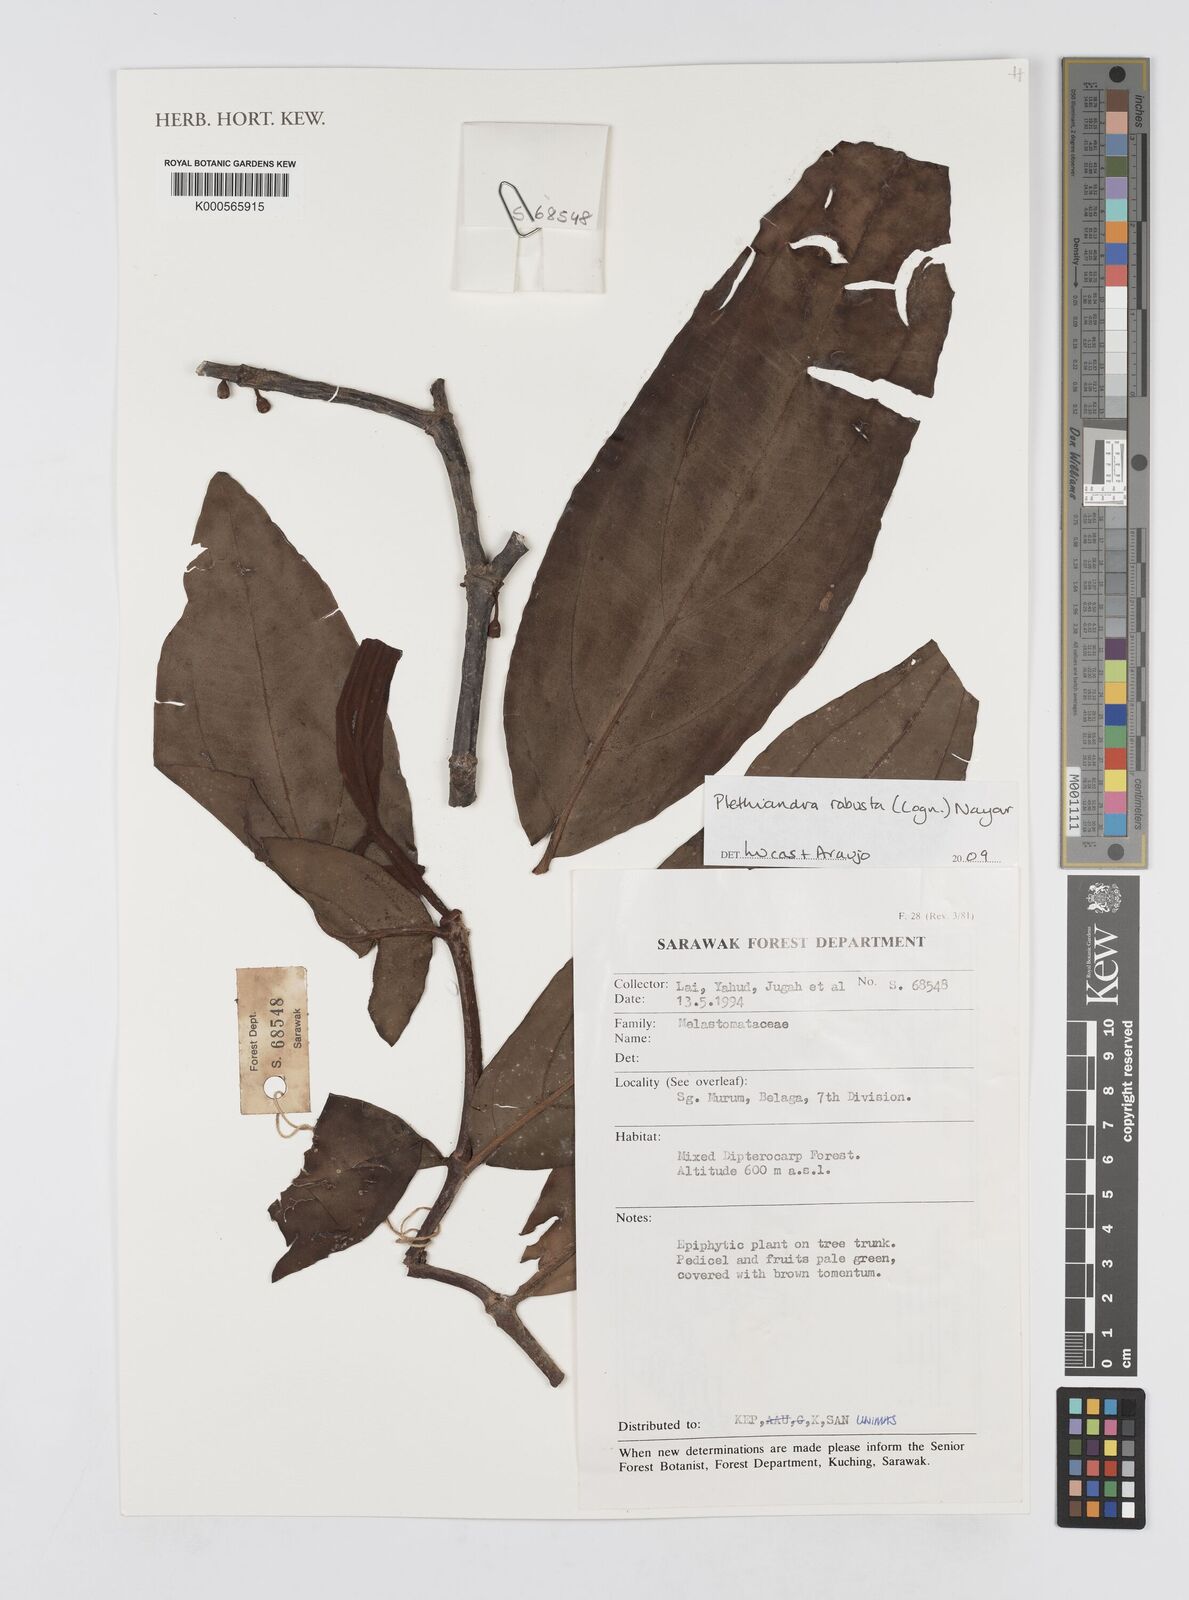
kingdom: Plantae
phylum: Tracheophyta
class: Magnoliopsida
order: Myrtales
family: Melastomataceae
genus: Plethiandra
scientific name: Plethiandra robusta
